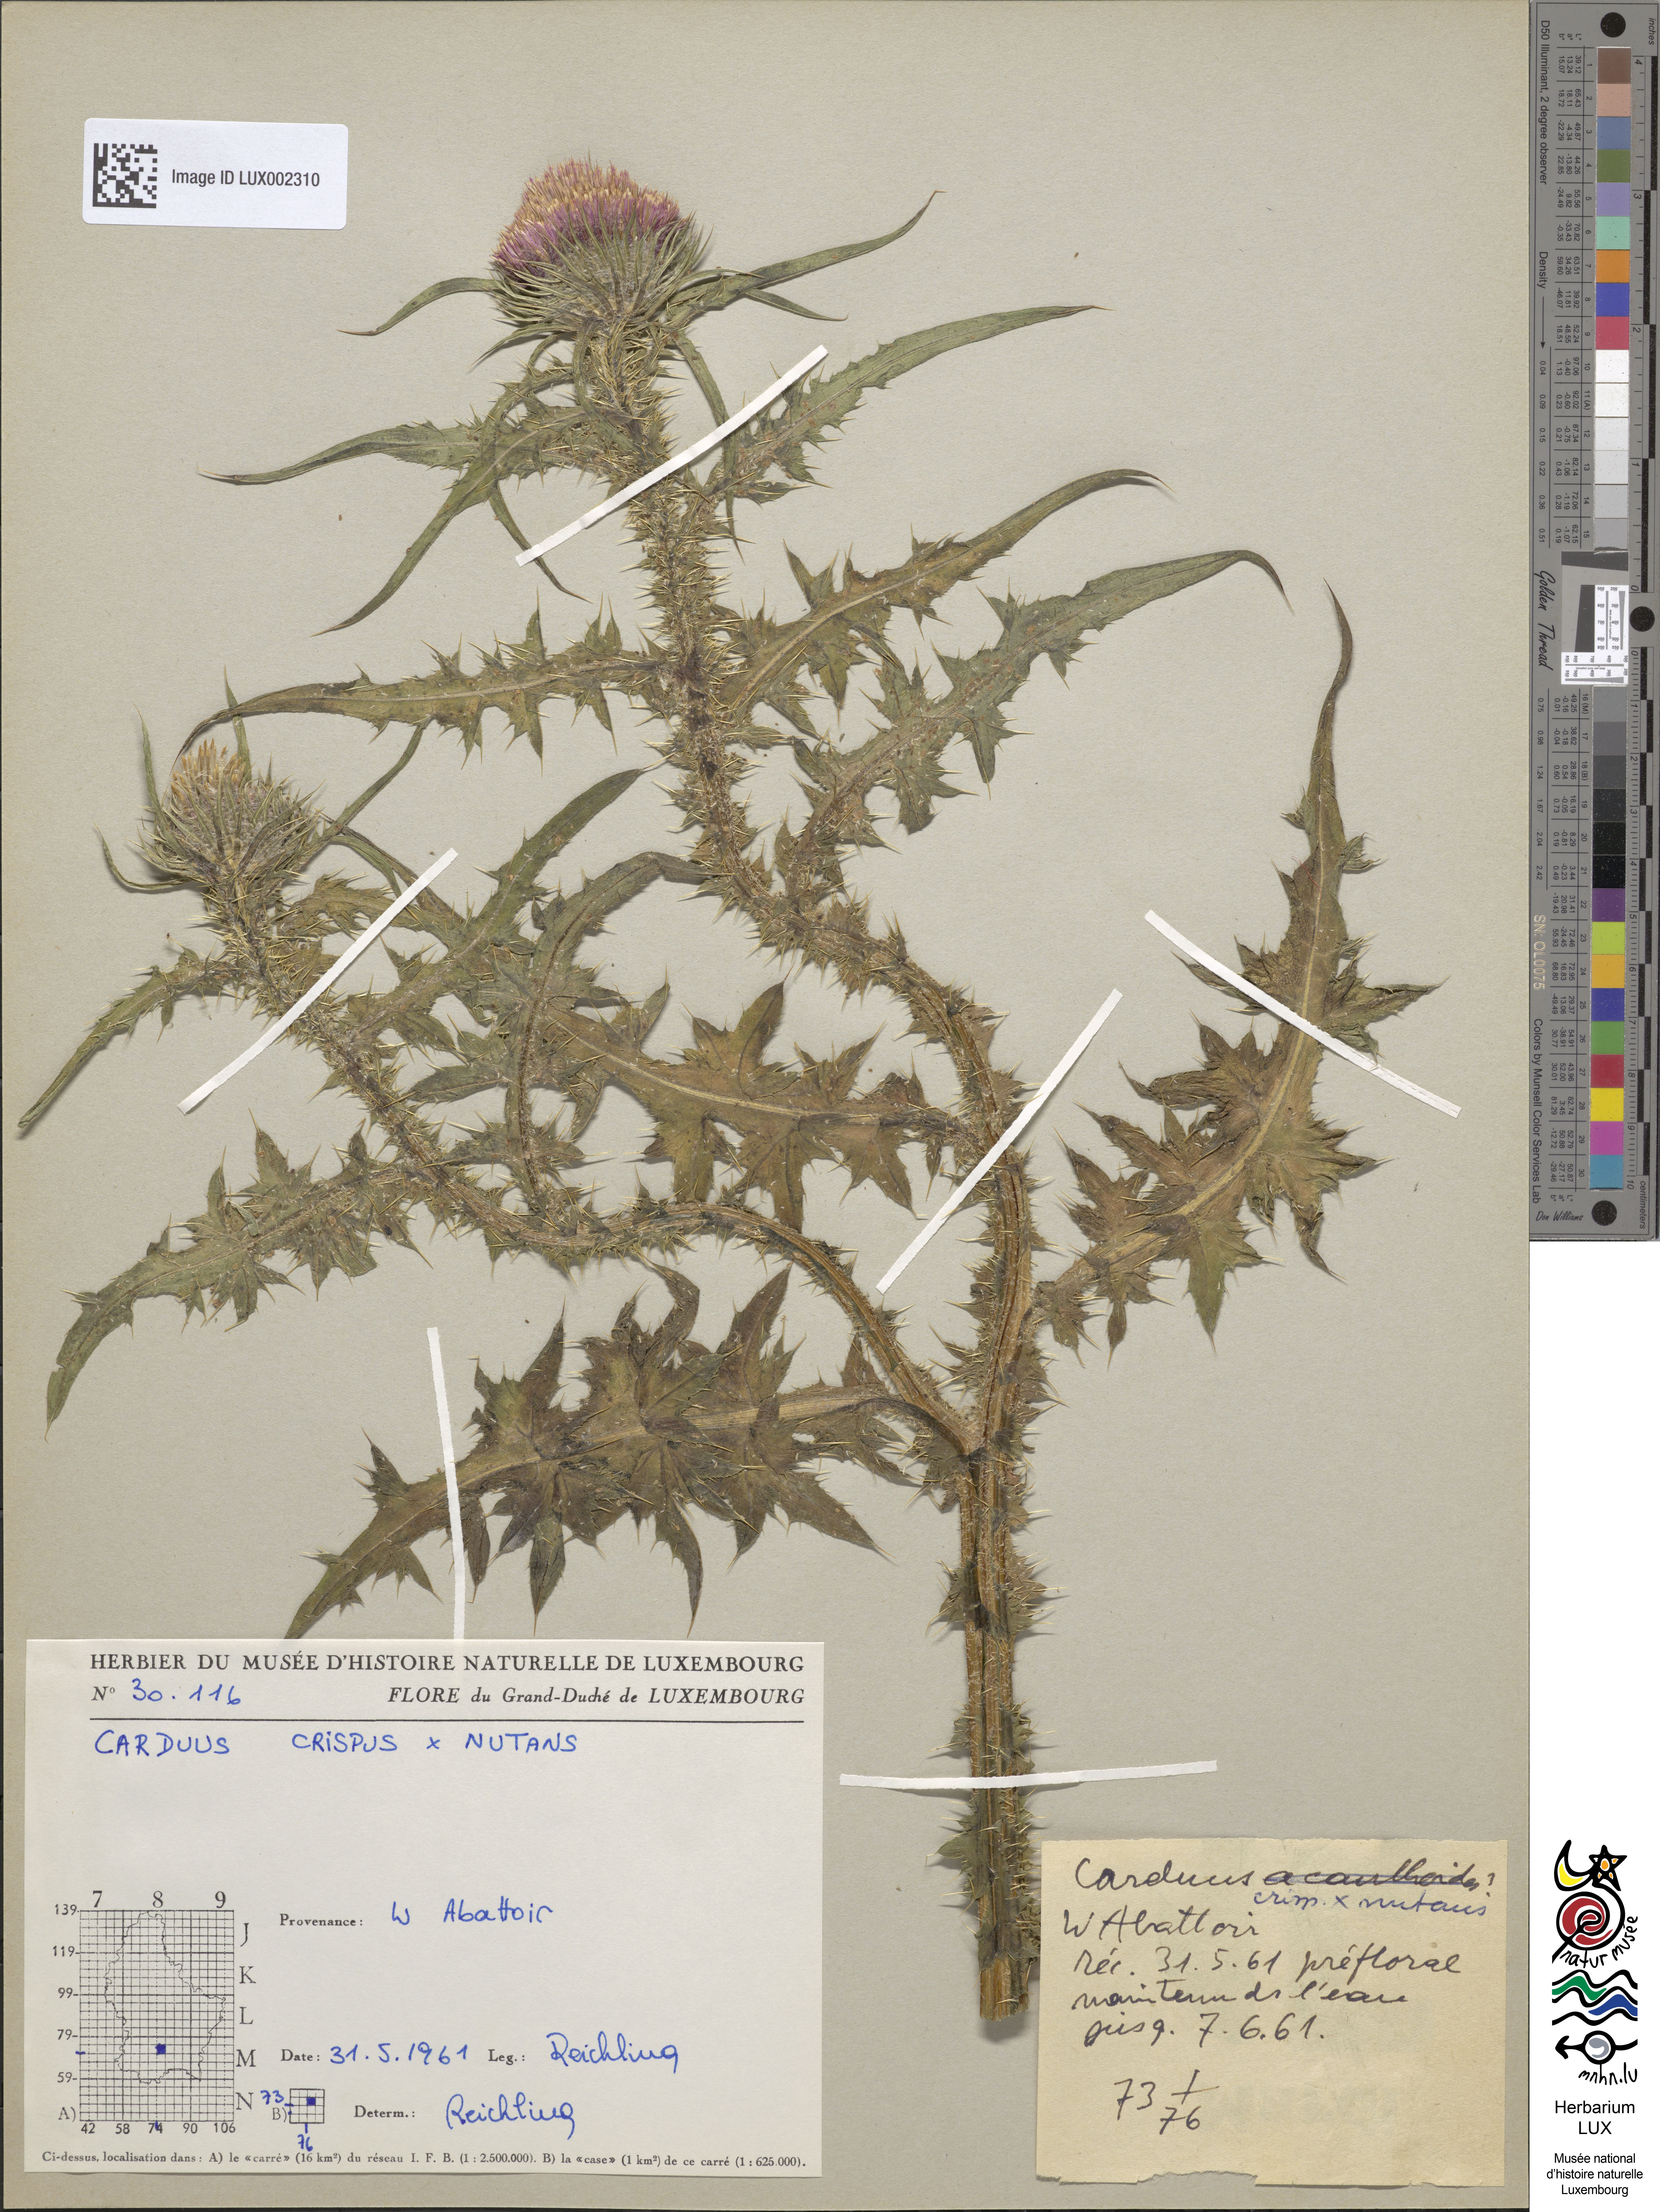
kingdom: Animalia
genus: Carduus
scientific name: Carduus
